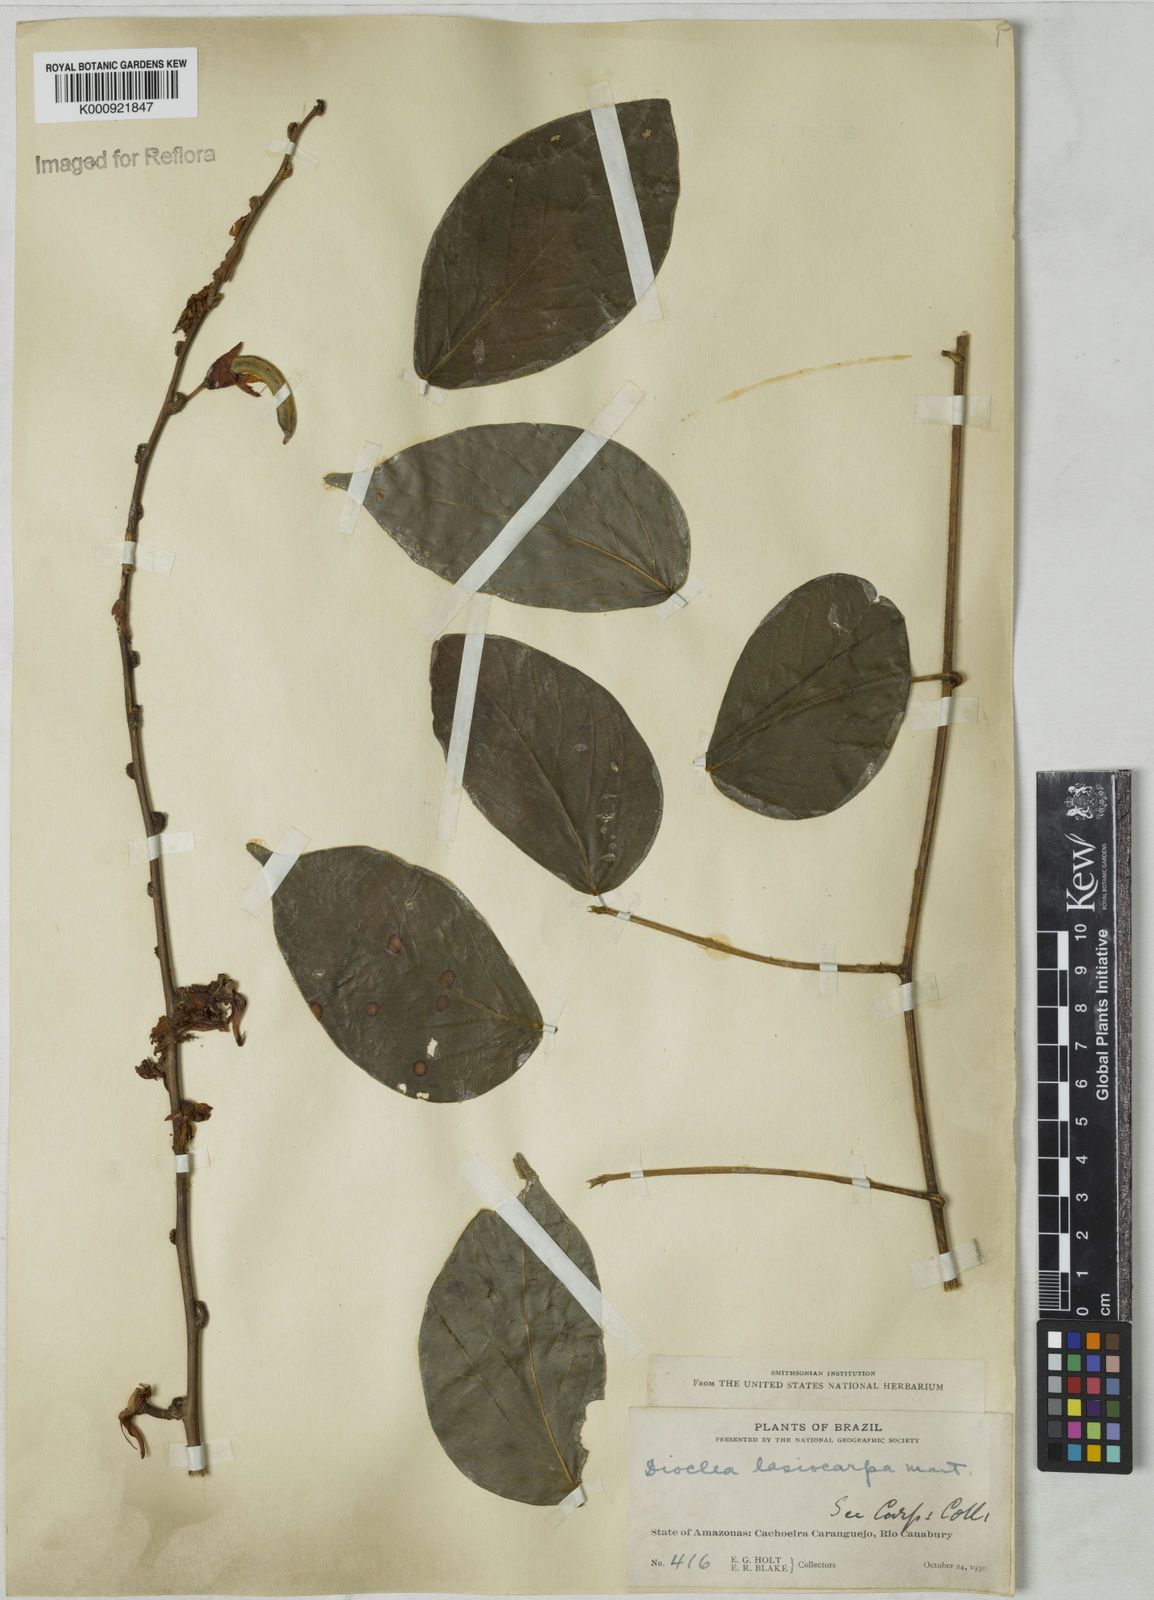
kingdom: Plantae
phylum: Tracheophyta
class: Magnoliopsida
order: Fabales
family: Fabaceae
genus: Dioclea
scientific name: Dioclea virgata
